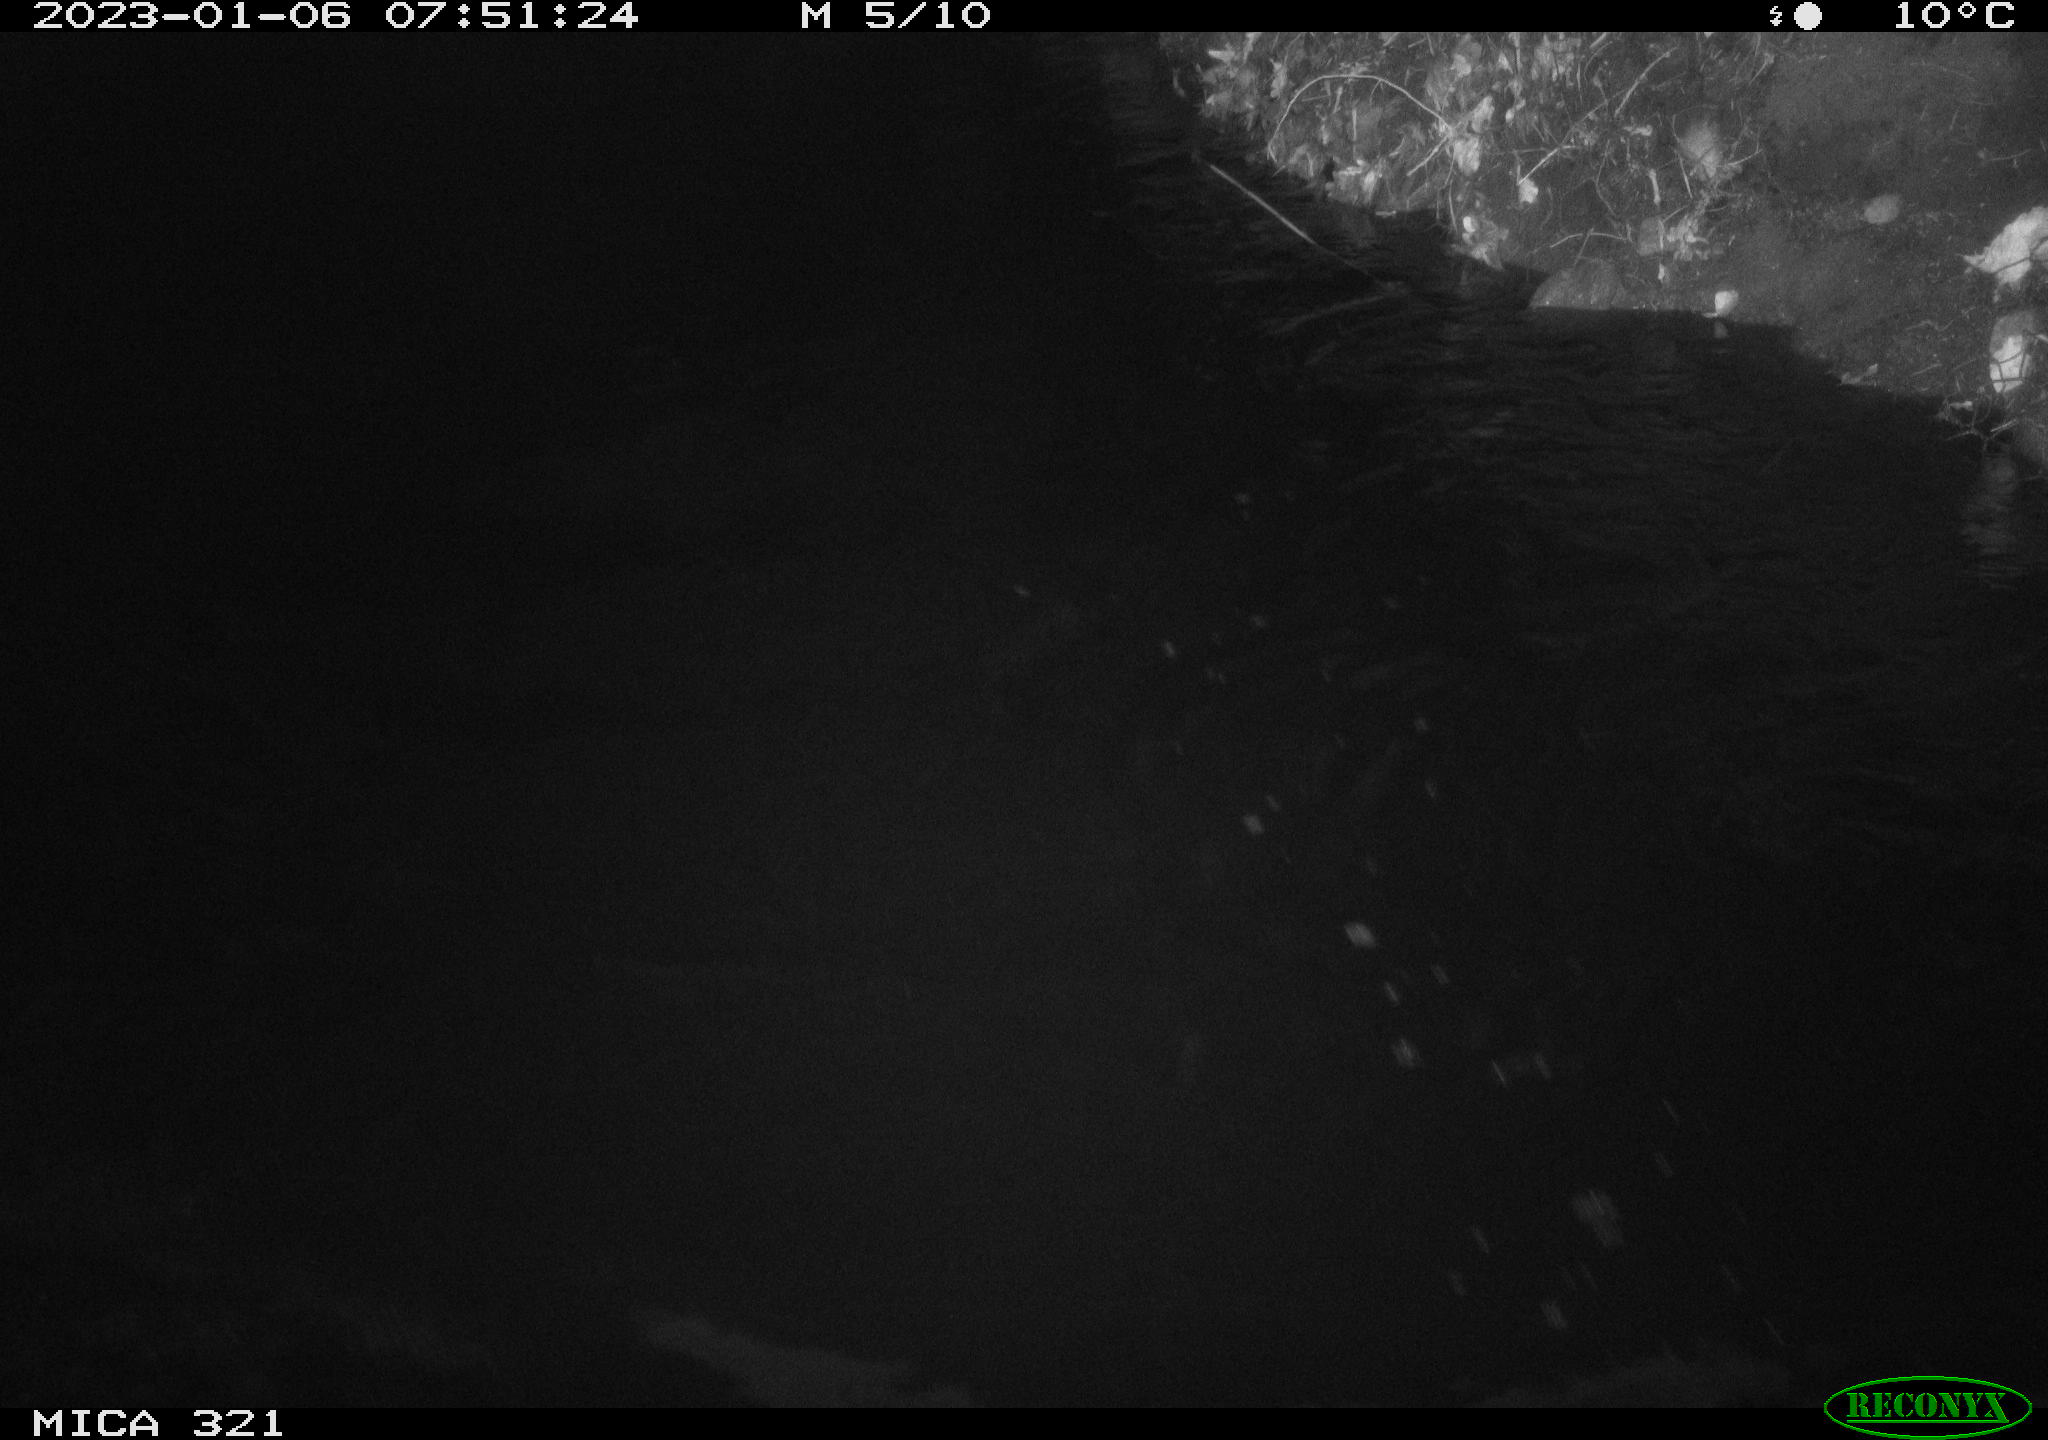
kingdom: Animalia
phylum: Chordata
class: Mammalia
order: Rodentia
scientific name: Rodentia
